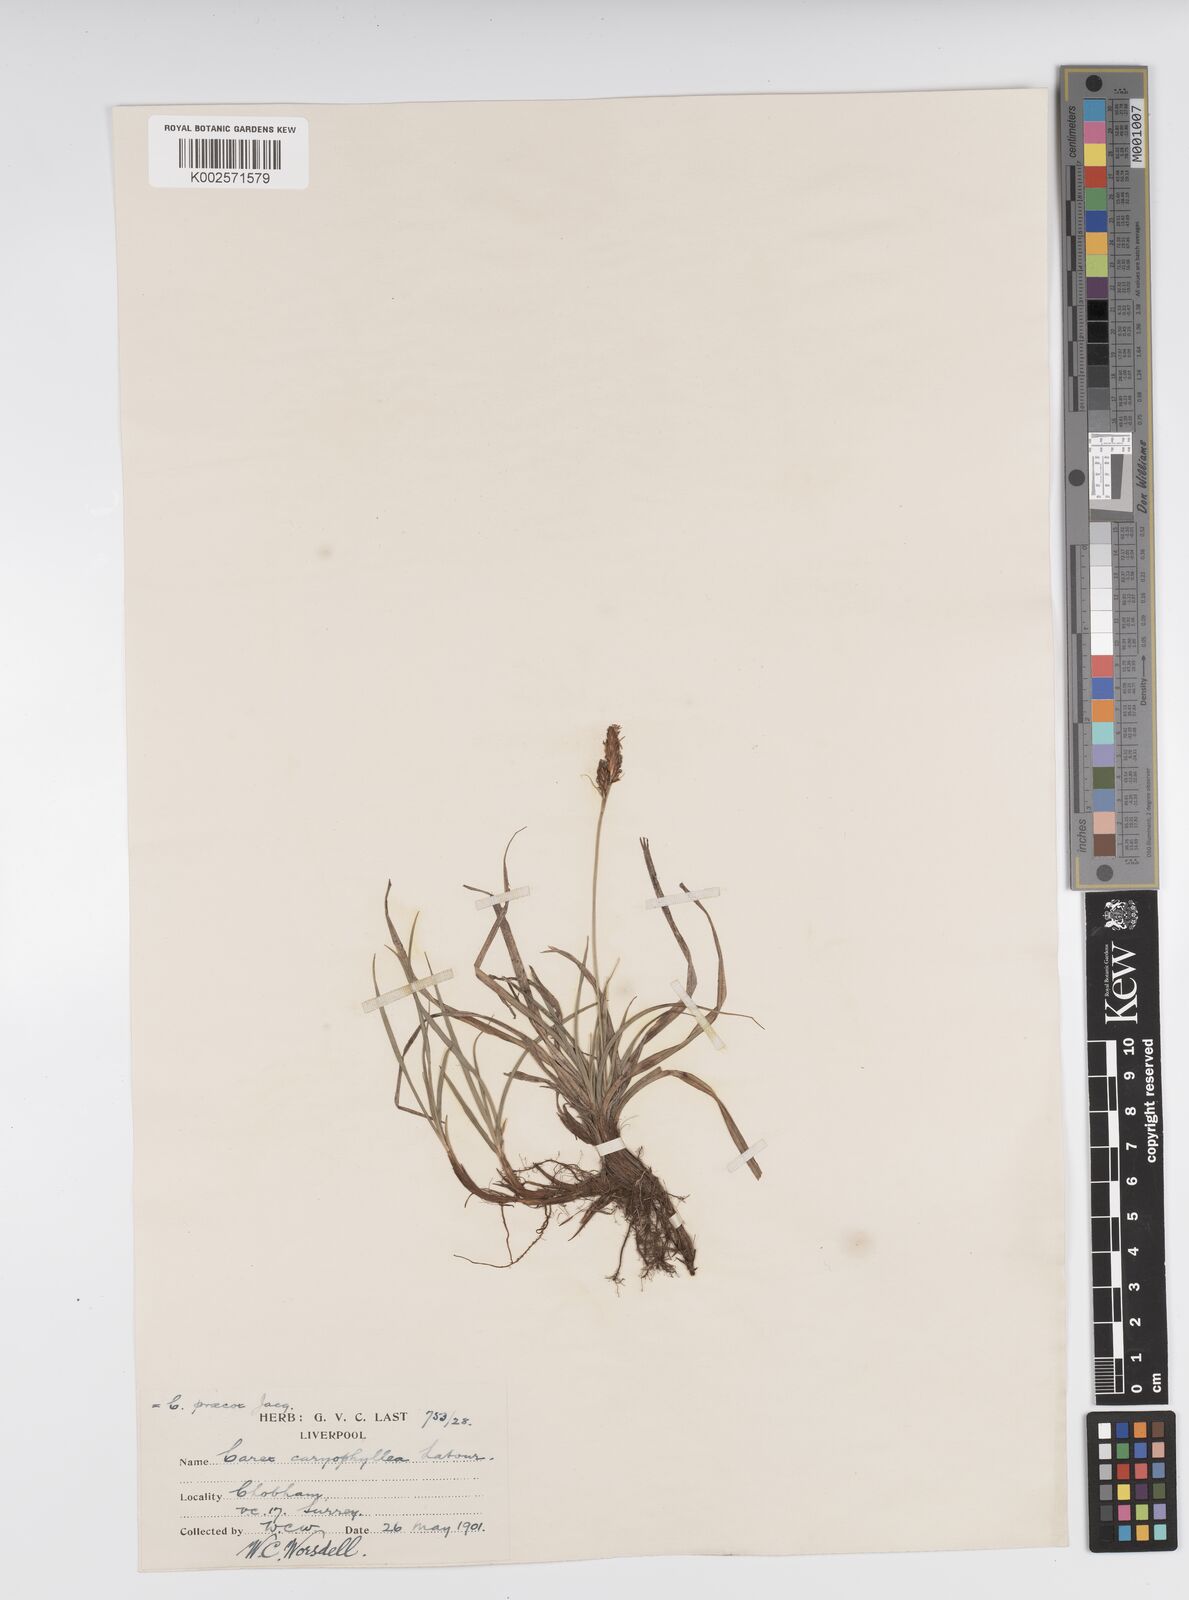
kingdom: Plantae
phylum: Tracheophyta
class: Liliopsida
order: Poales
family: Cyperaceae
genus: Carex
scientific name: Carex caryophyllea
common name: Spring sedge
